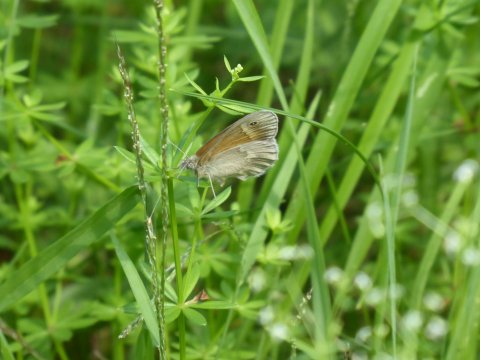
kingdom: Animalia
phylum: Arthropoda
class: Insecta
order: Lepidoptera
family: Nymphalidae
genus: Coenonympha
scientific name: Coenonympha tullia
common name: Large Heath
